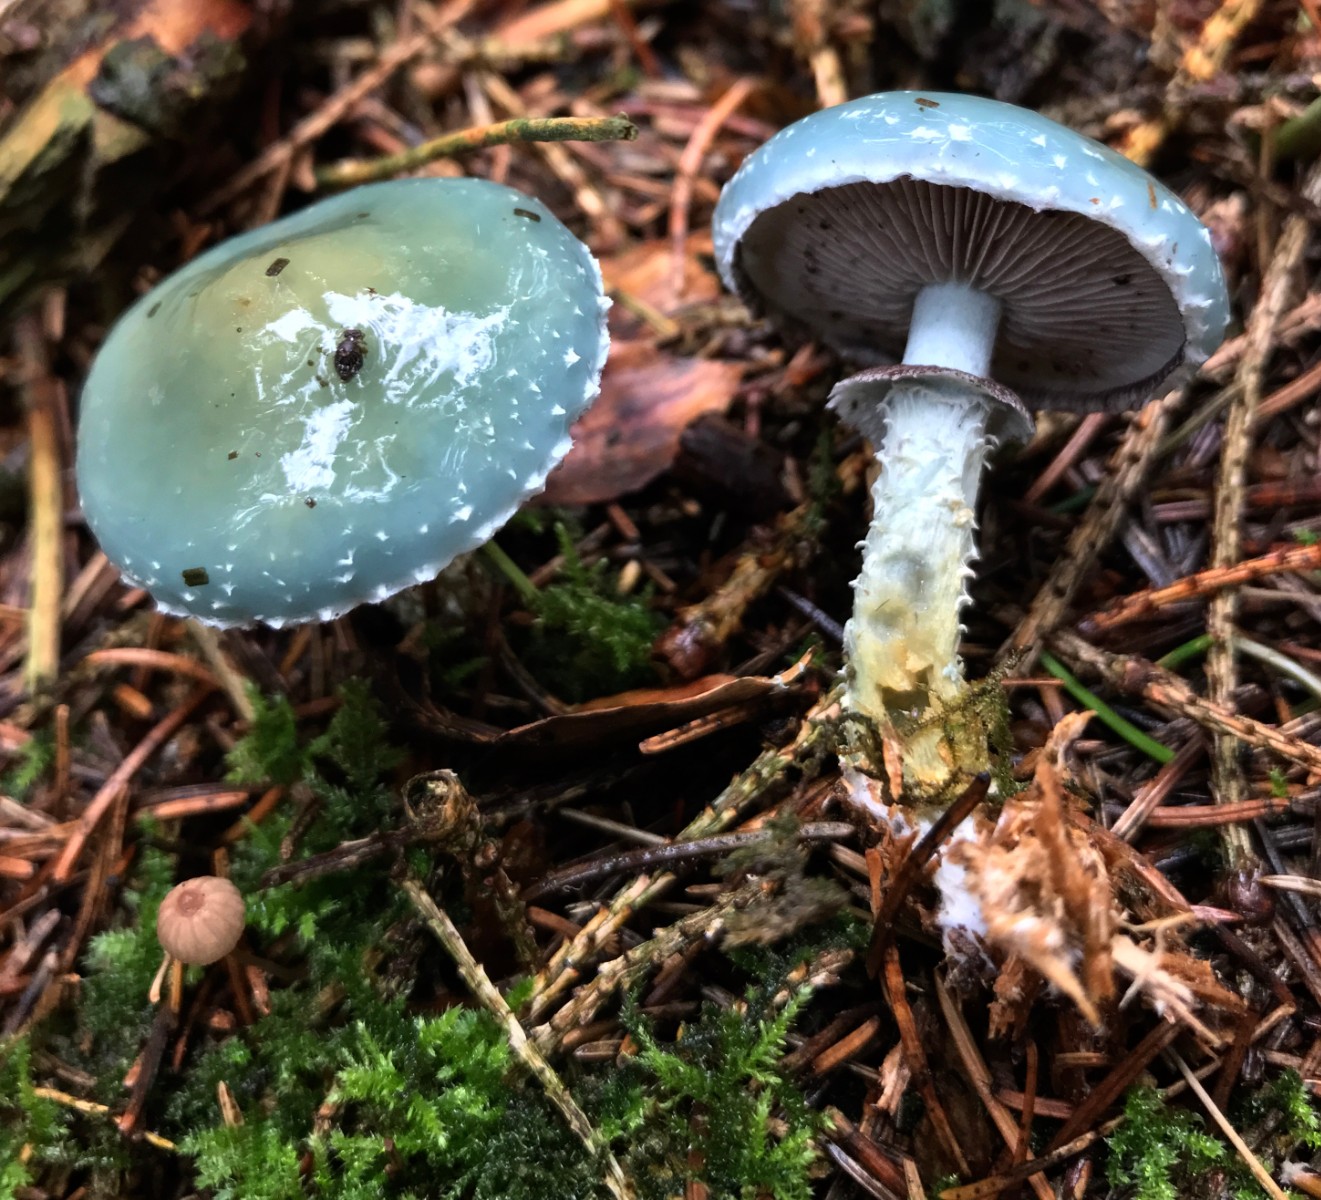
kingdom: Fungi
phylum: Basidiomycota
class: Agaricomycetes
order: Agaricales
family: Strophariaceae
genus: Stropharia
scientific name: Stropharia aeruginosa
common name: spanskgrøn bredblad
